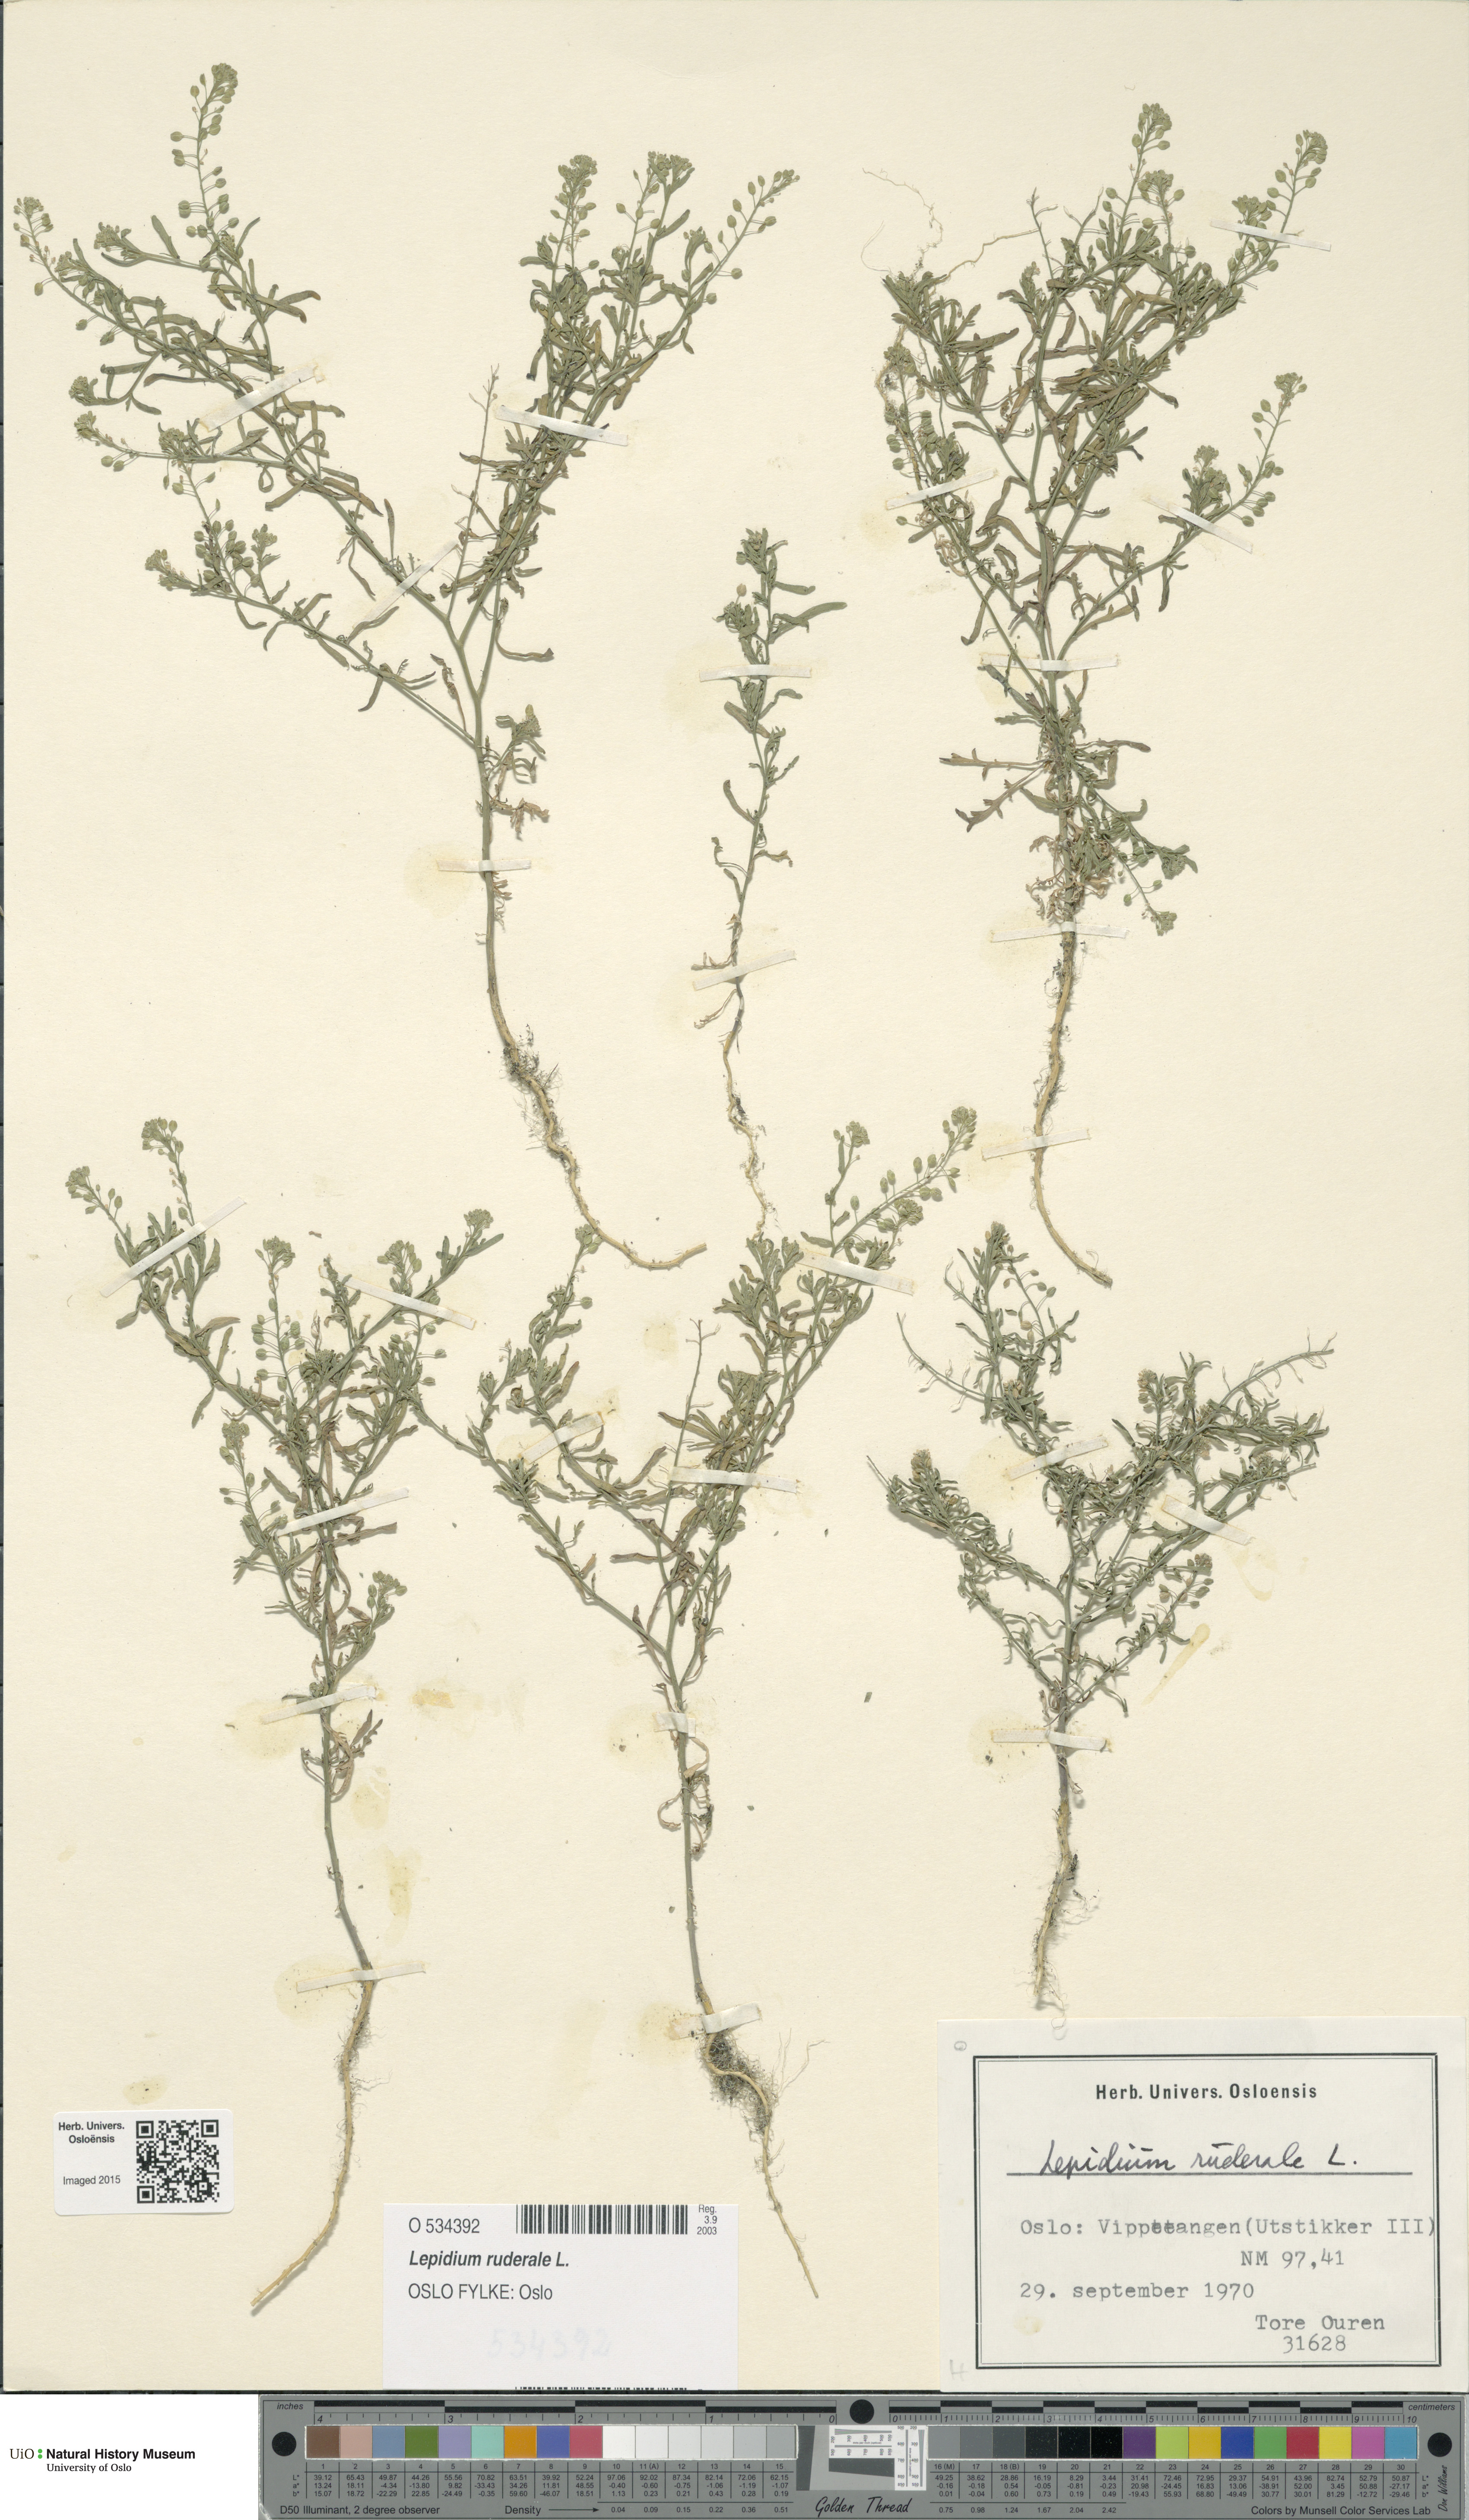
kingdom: Plantae
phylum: Tracheophyta
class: Magnoliopsida
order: Brassicales
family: Brassicaceae
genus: Lepidium
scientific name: Lepidium ruderale
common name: Narrow-leaved pepperwort
